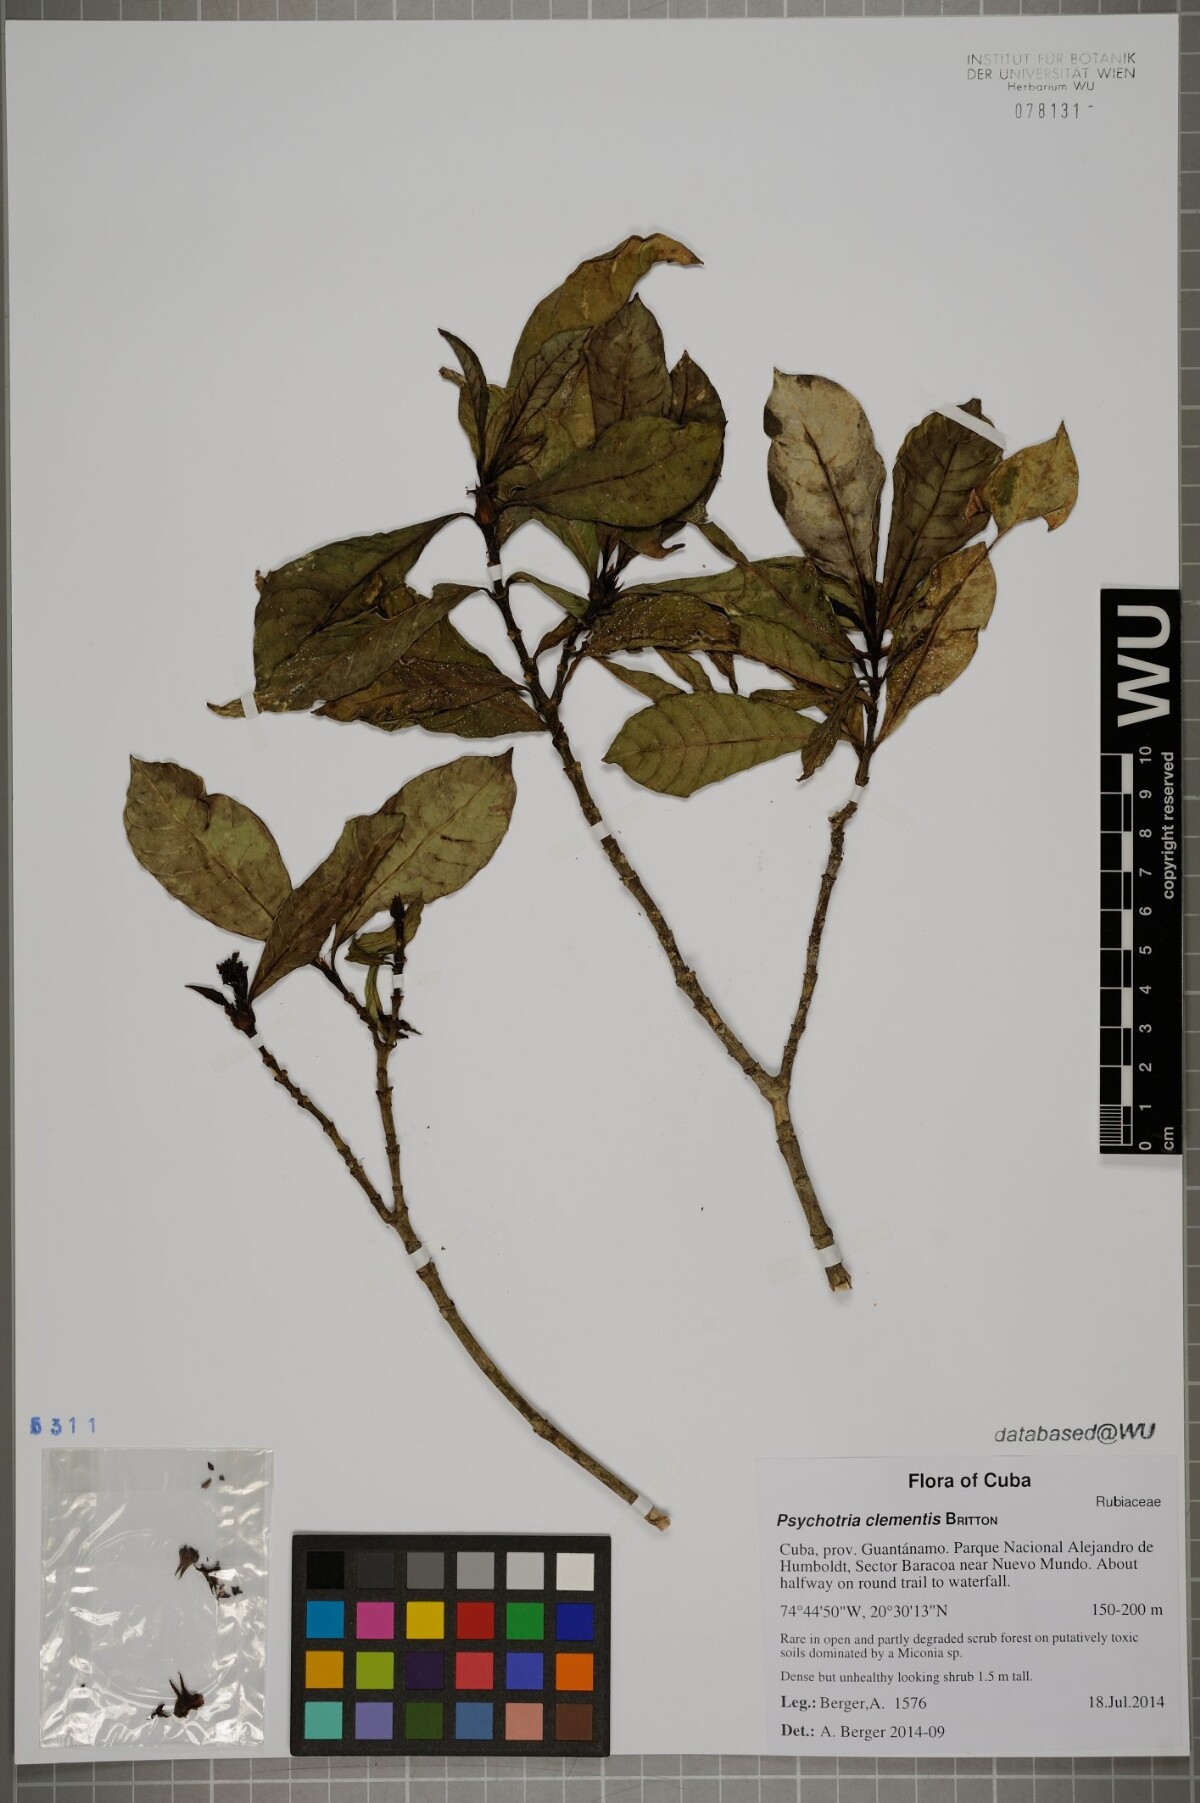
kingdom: Plantae
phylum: Tracheophyta
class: Magnoliopsida
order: Gentianales
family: Rubiaceae
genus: Psychotria
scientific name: Psychotria costivenia
